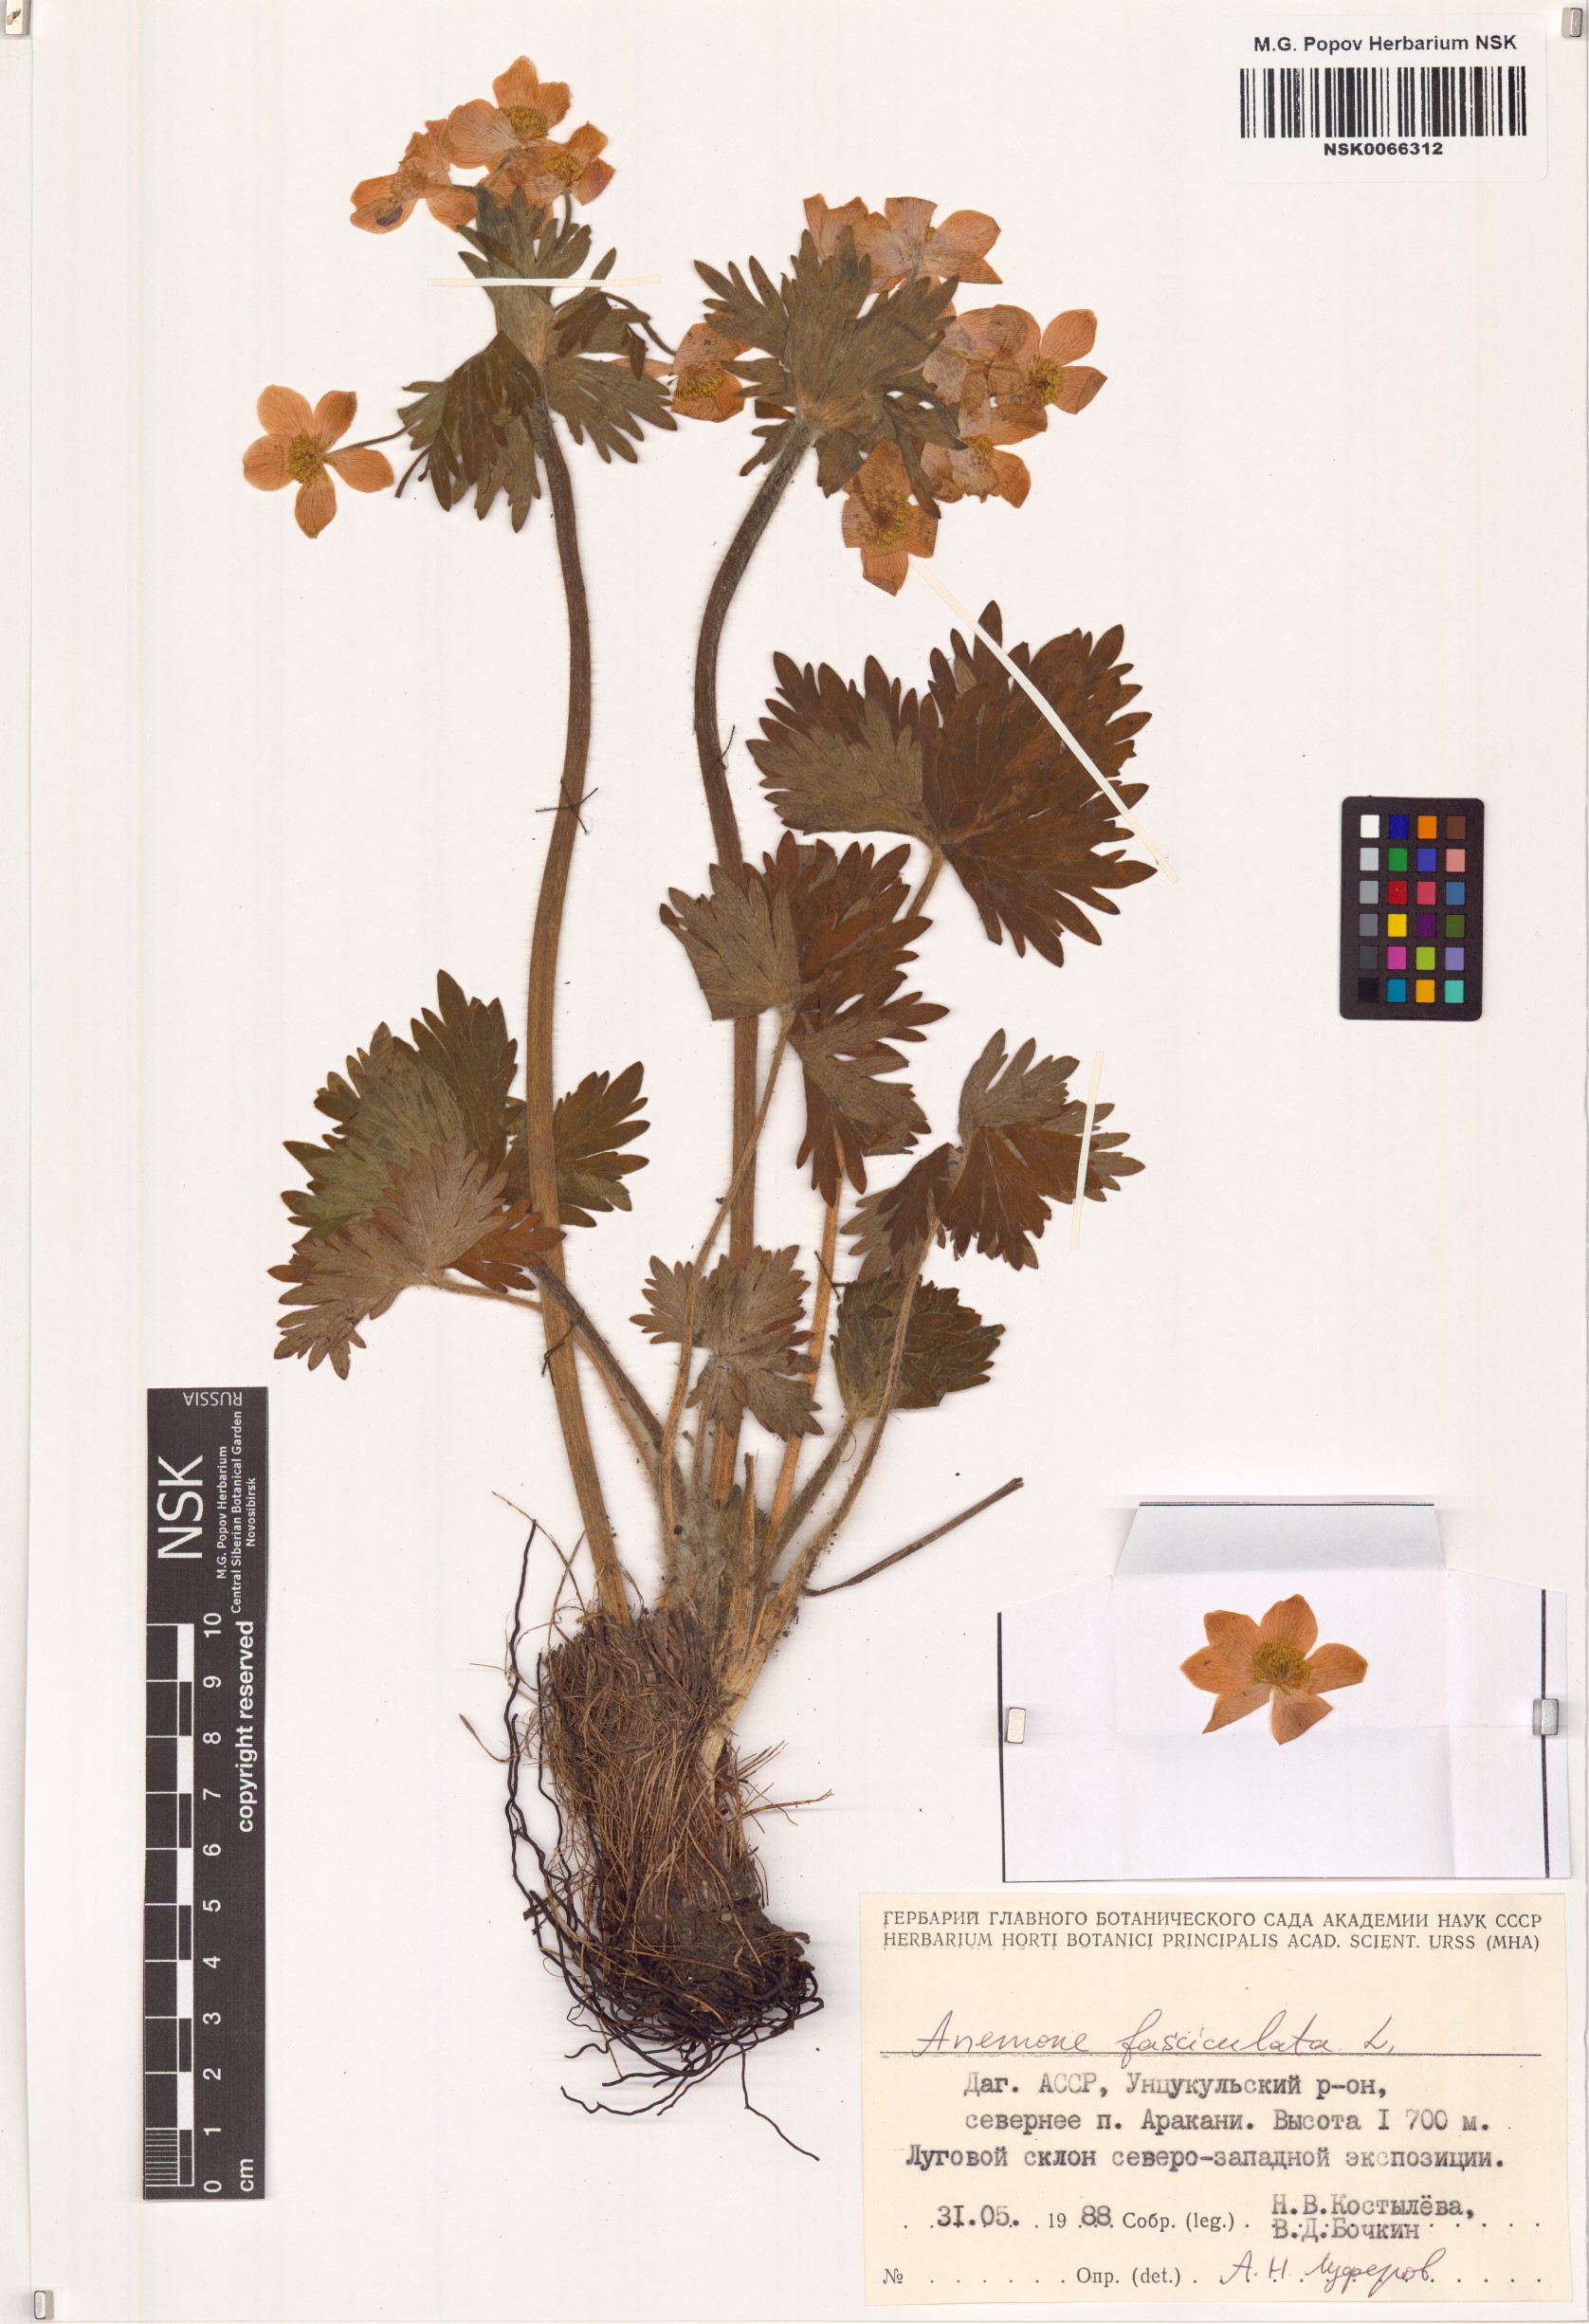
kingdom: Plantae
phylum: Tracheophyta
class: Magnoliopsida
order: Ranunculales
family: Ranunculaceae
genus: Anemonastrum
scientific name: Anemonastrum narcissiflorum
